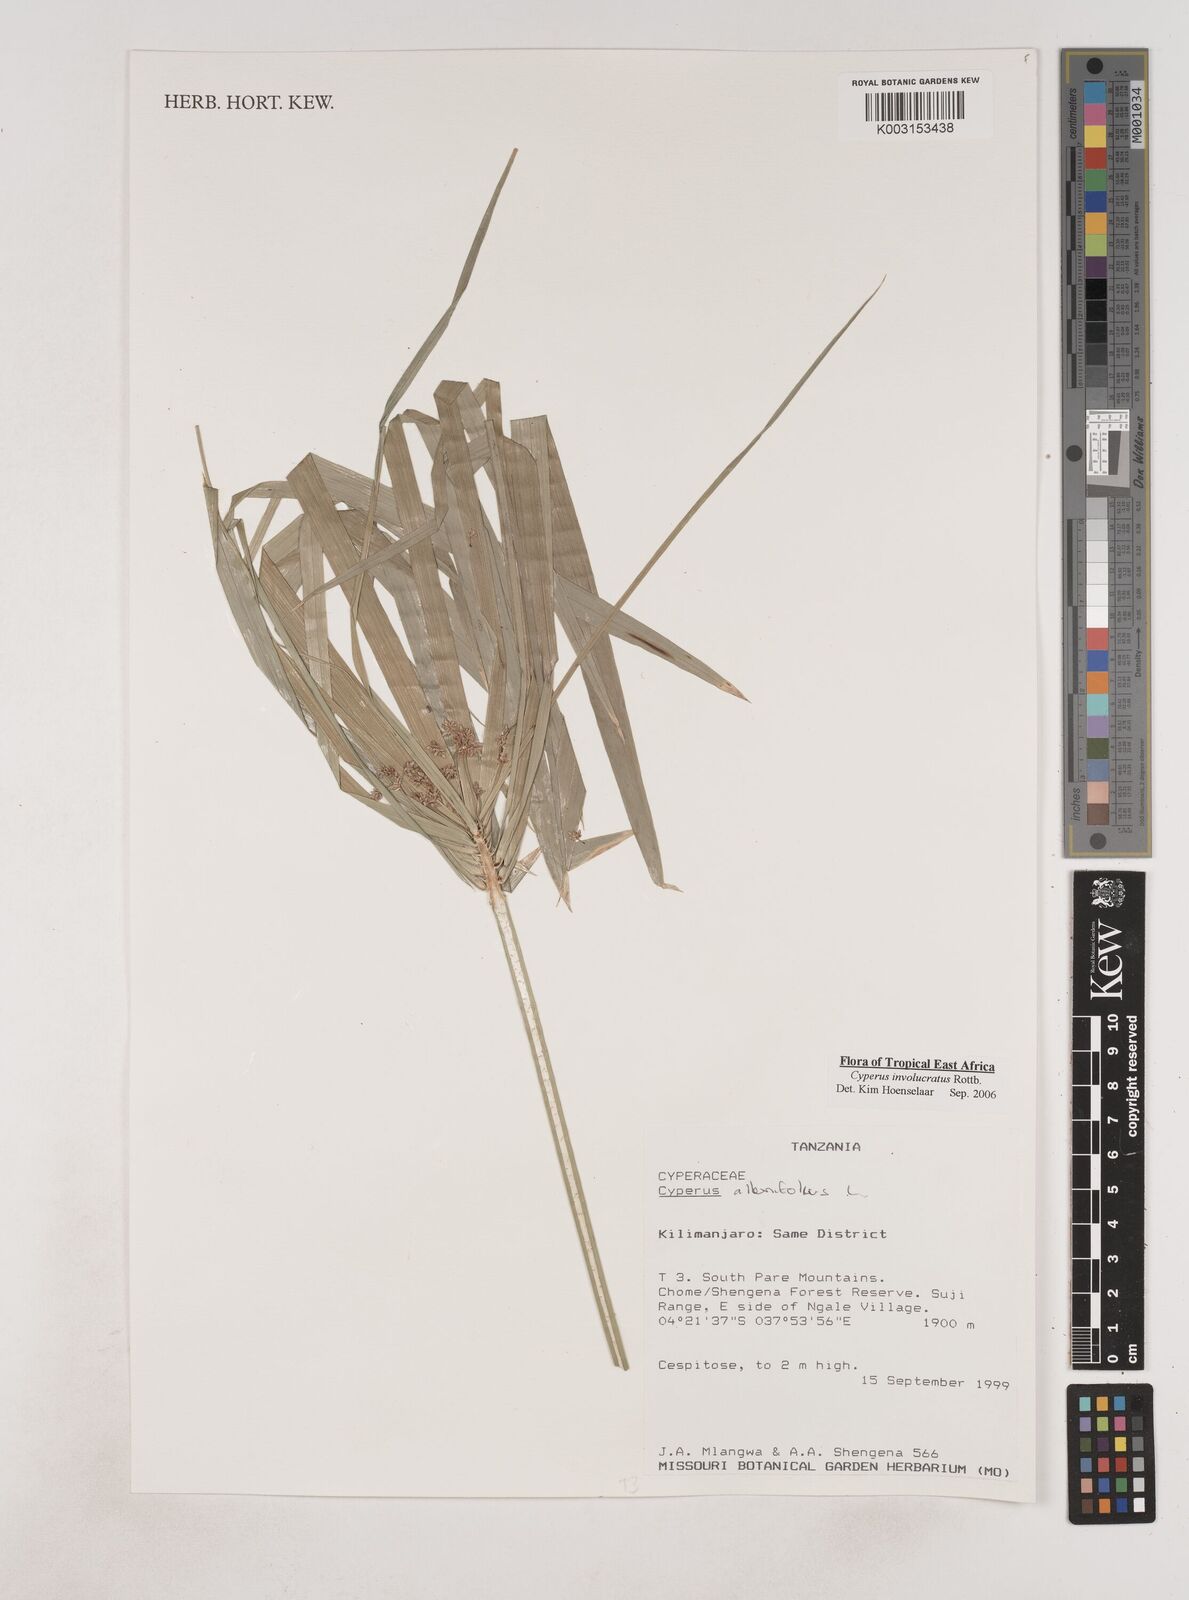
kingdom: Plantae
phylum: Tracheophyta
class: Liliopsida
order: Poales
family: Cyperaceae
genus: Cyperus
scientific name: Cyperus
